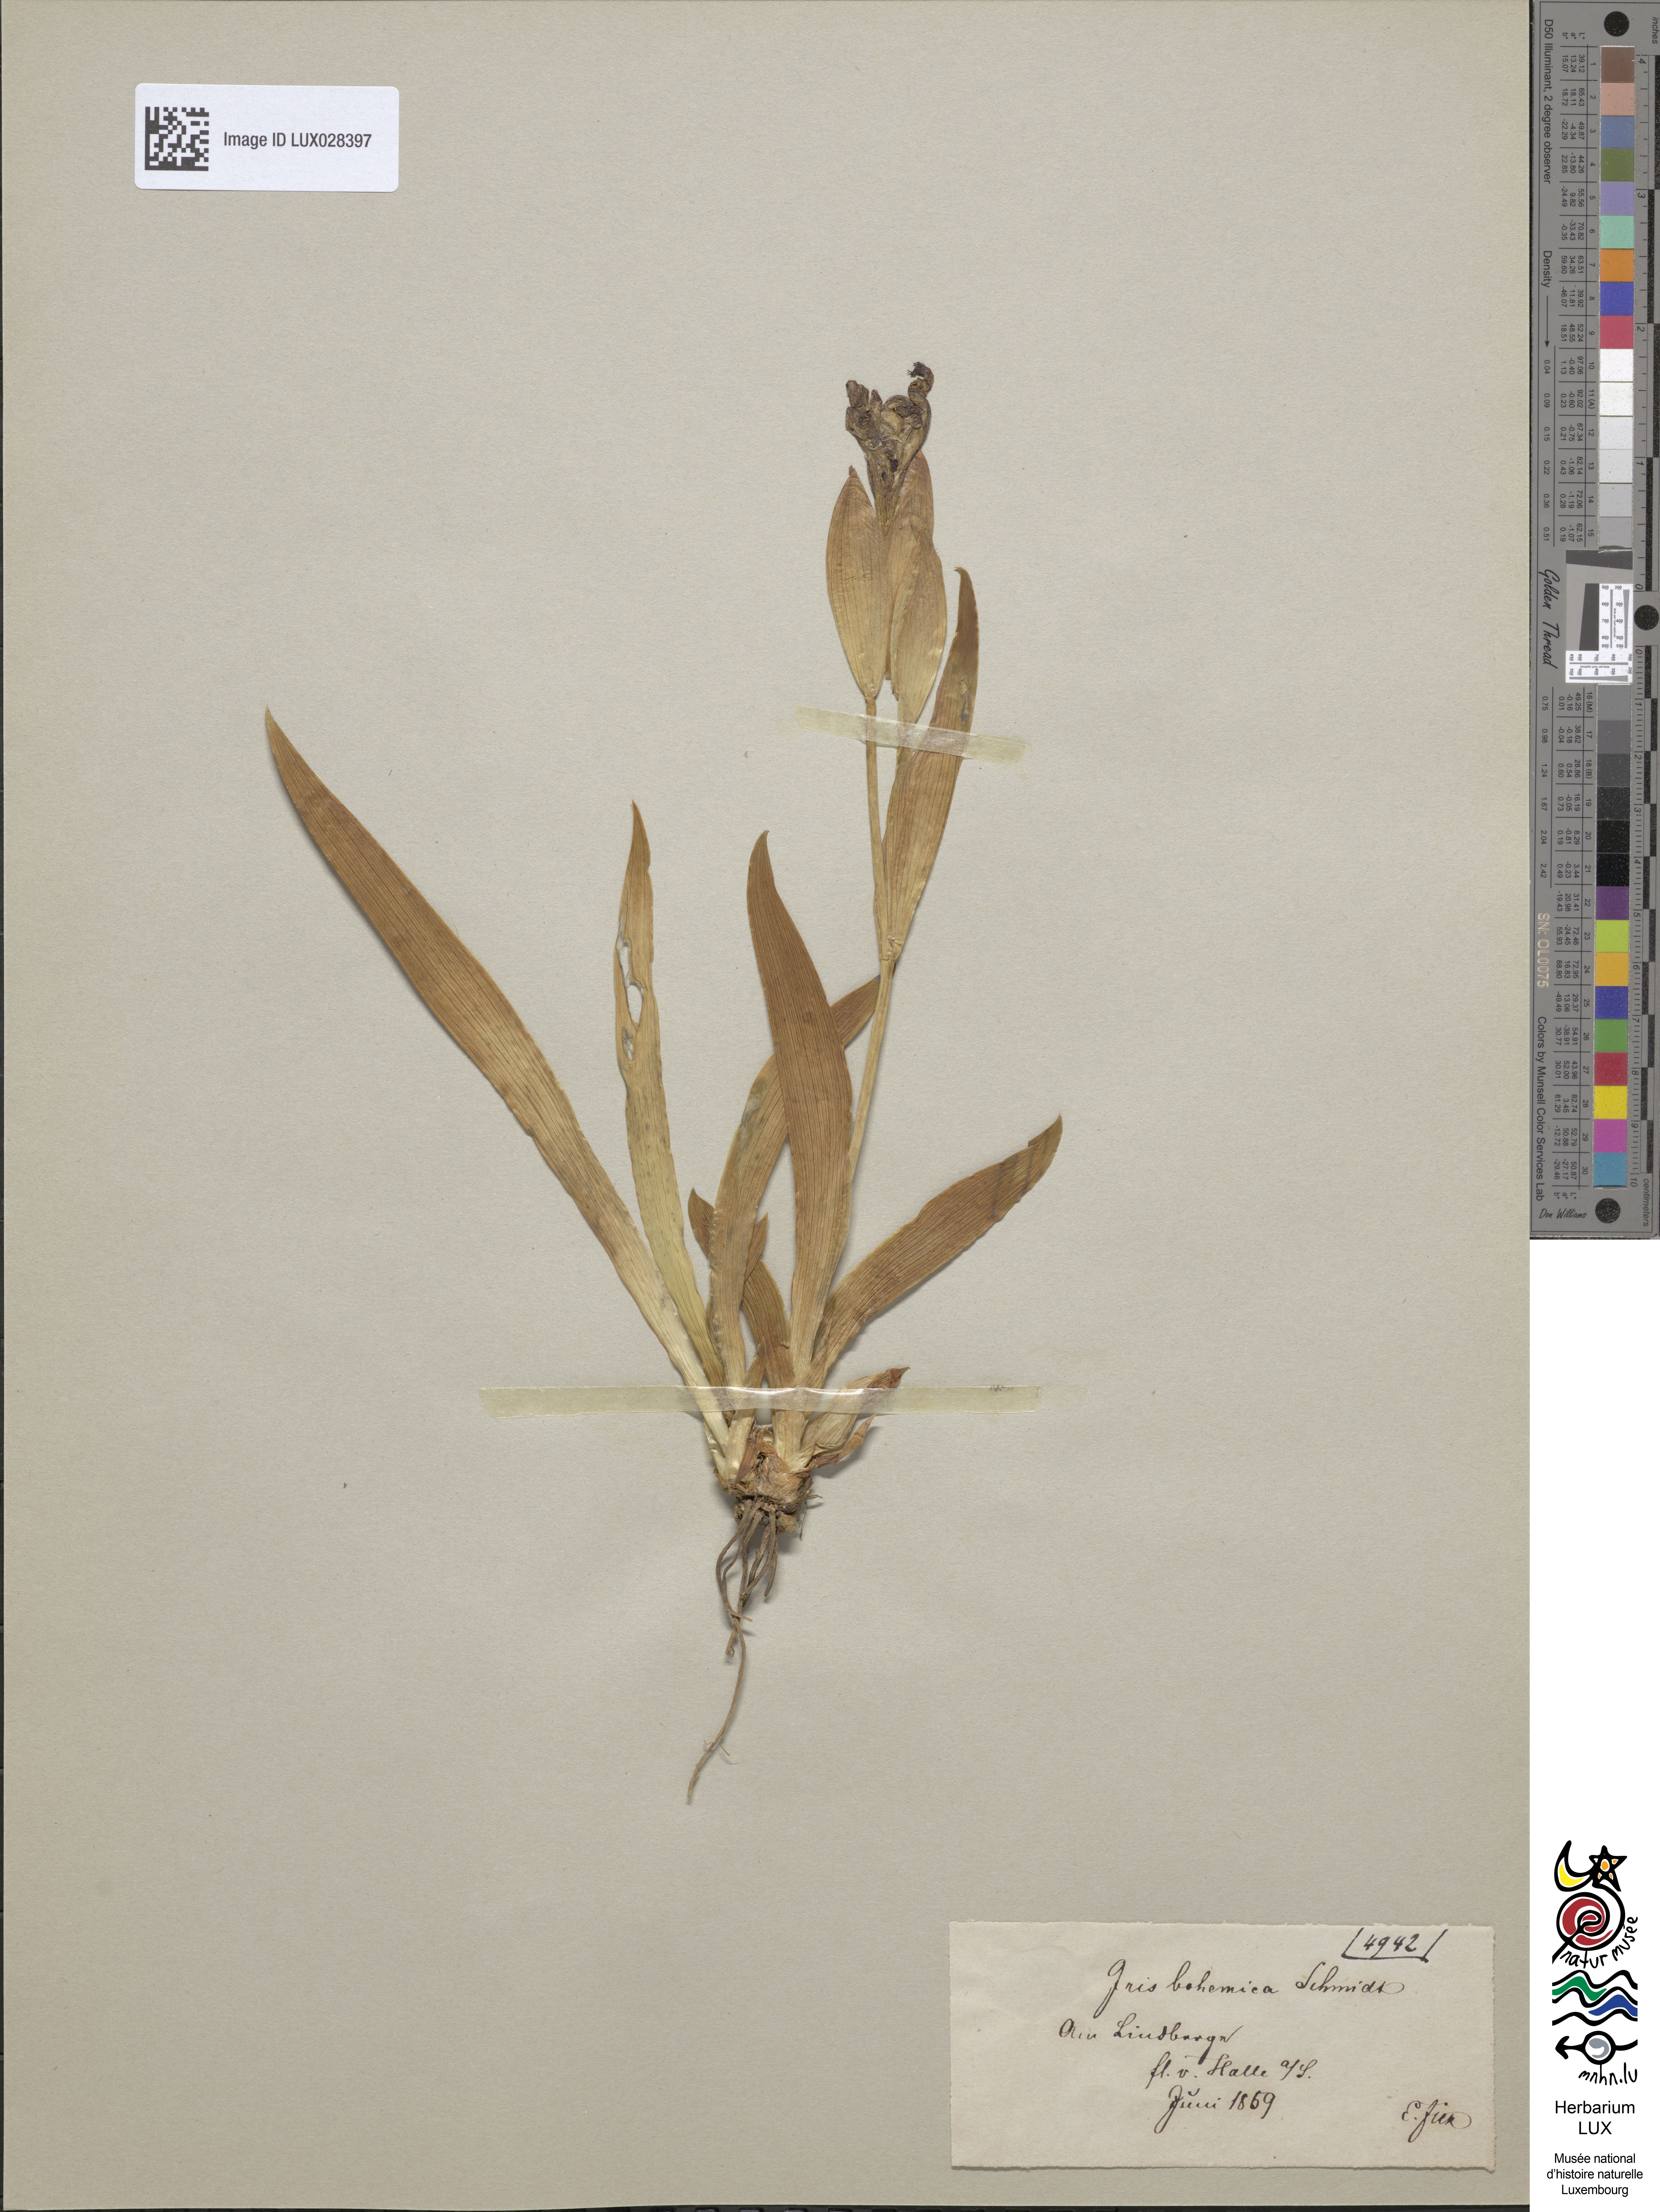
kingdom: Animalia
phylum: Arthropoda
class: Insecta
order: Mantodea
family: Eremiaphilidae
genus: Iris
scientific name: Iris
